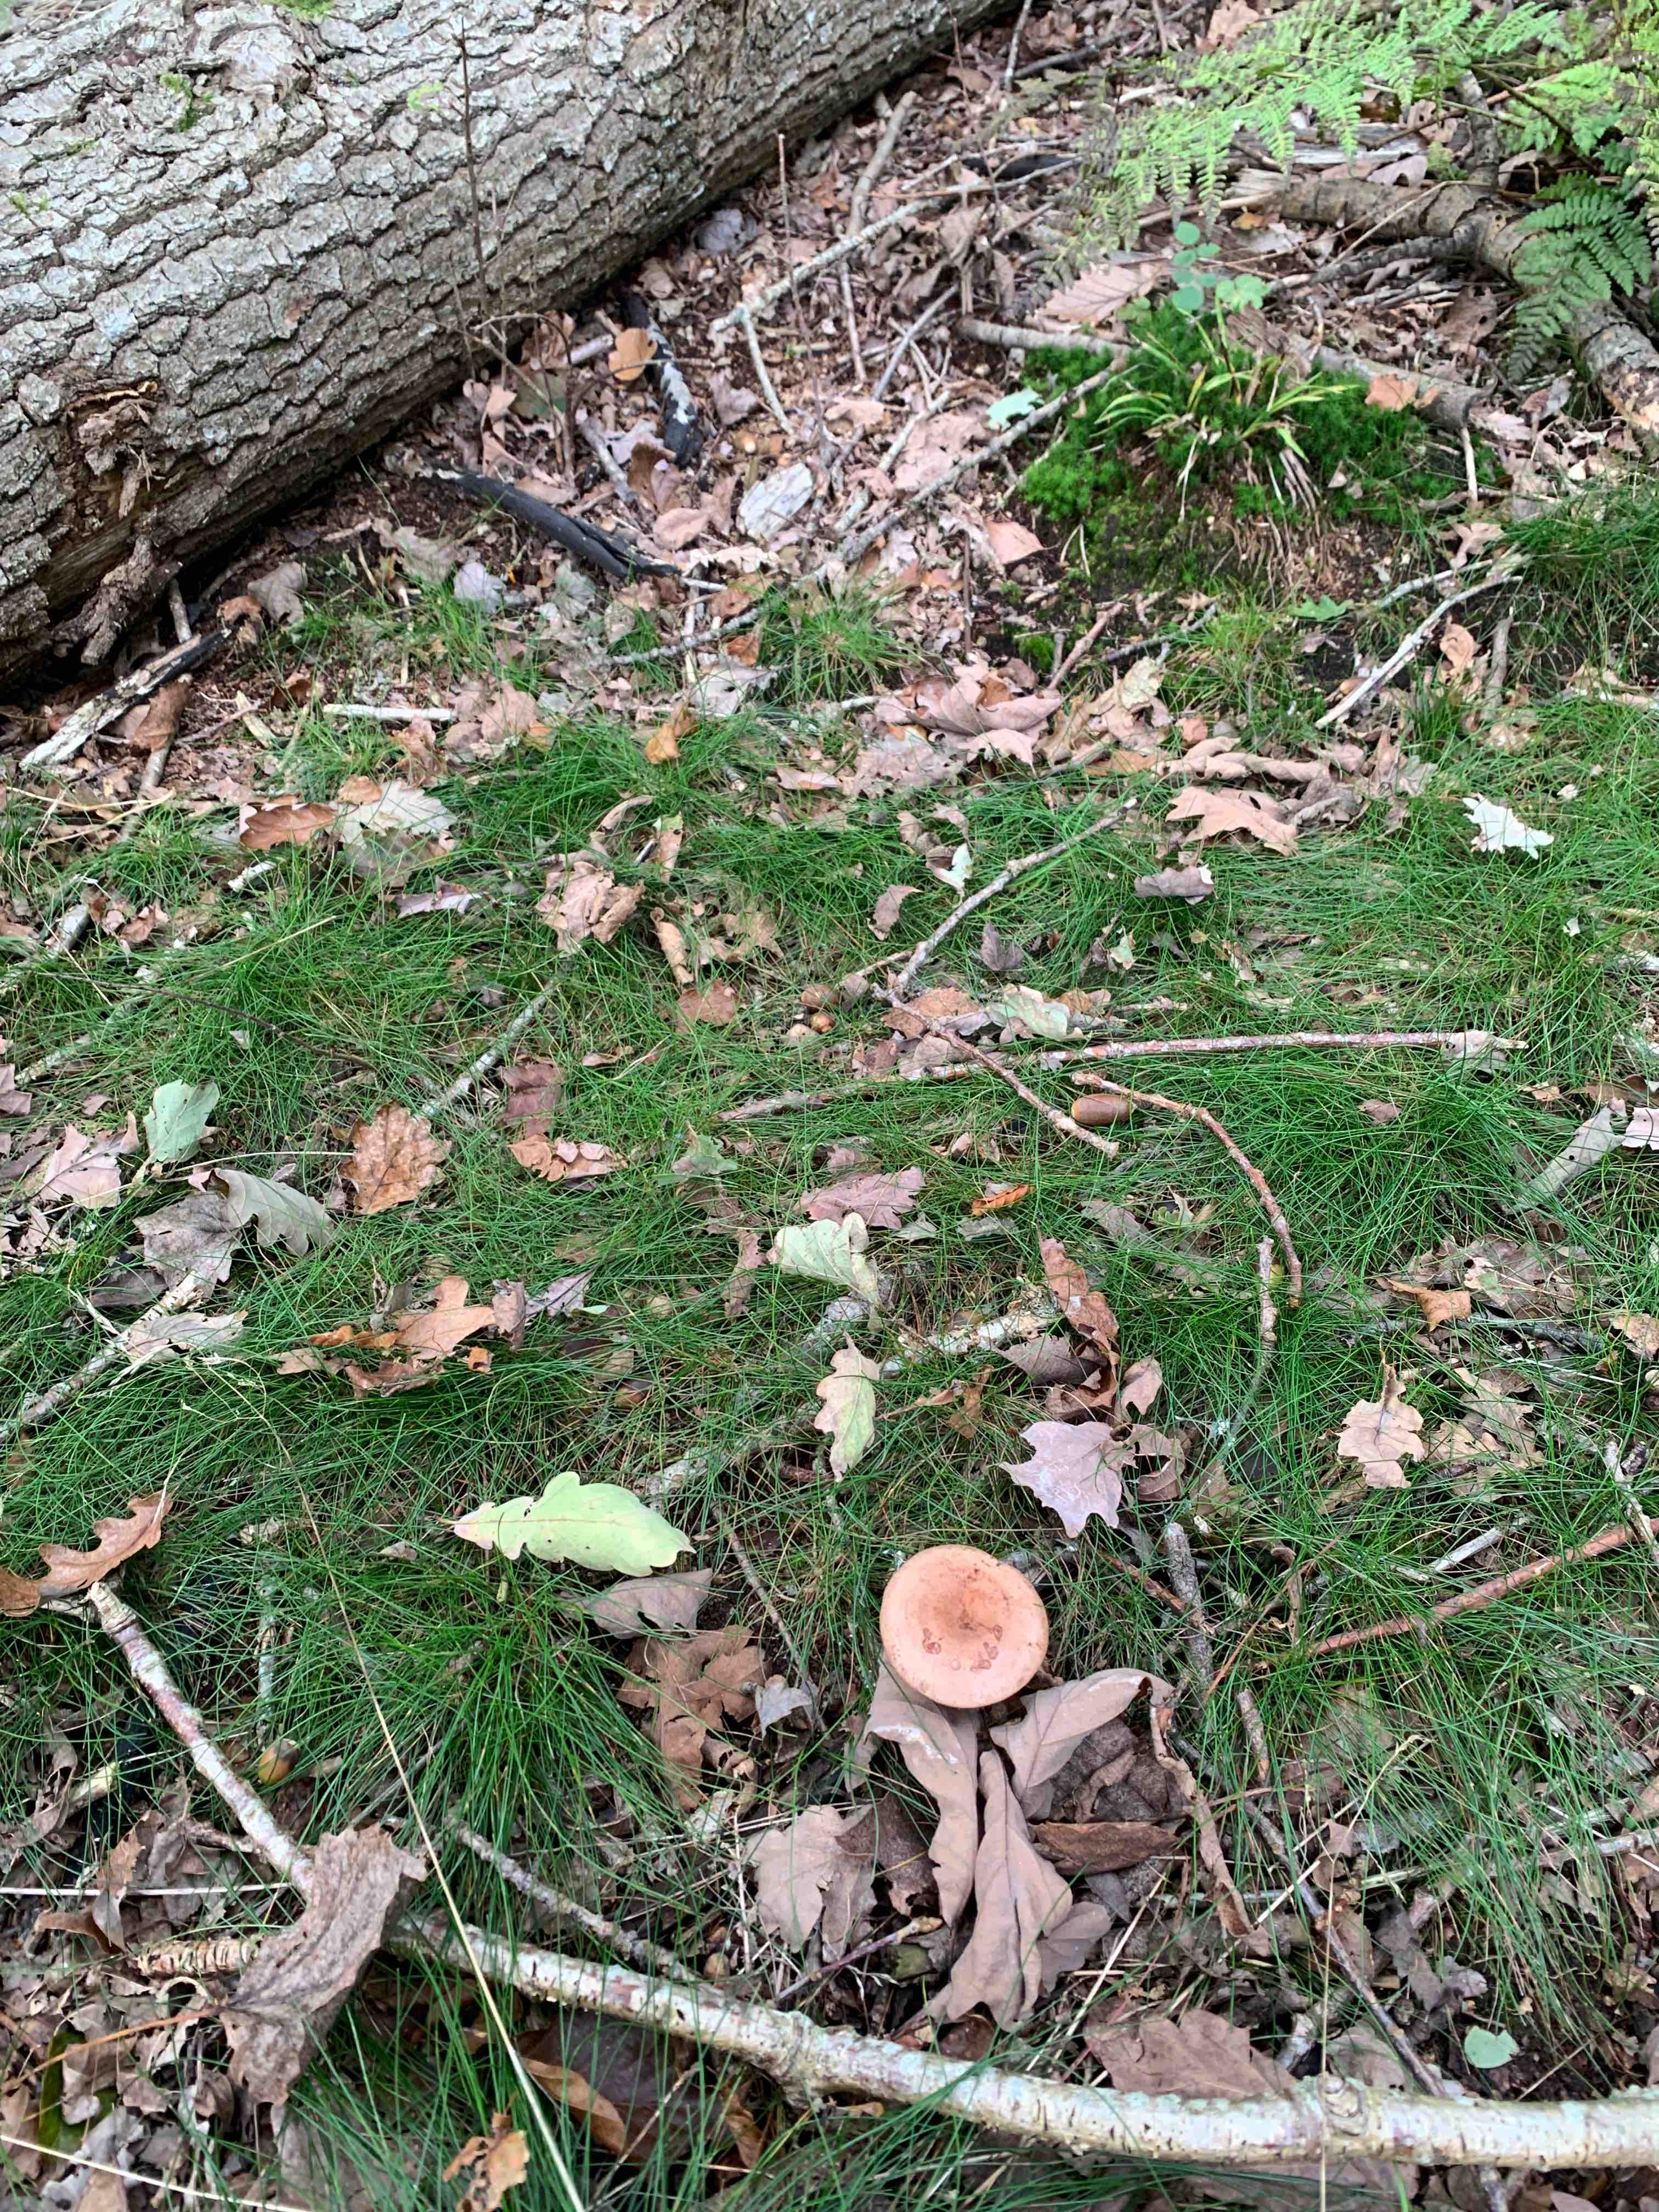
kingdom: Fungi
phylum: Basidiomycota
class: Agaricomycetes
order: Russulales
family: Russulaceae
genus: Lactarius
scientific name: Lactarius quietus
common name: ege-mælkehat
